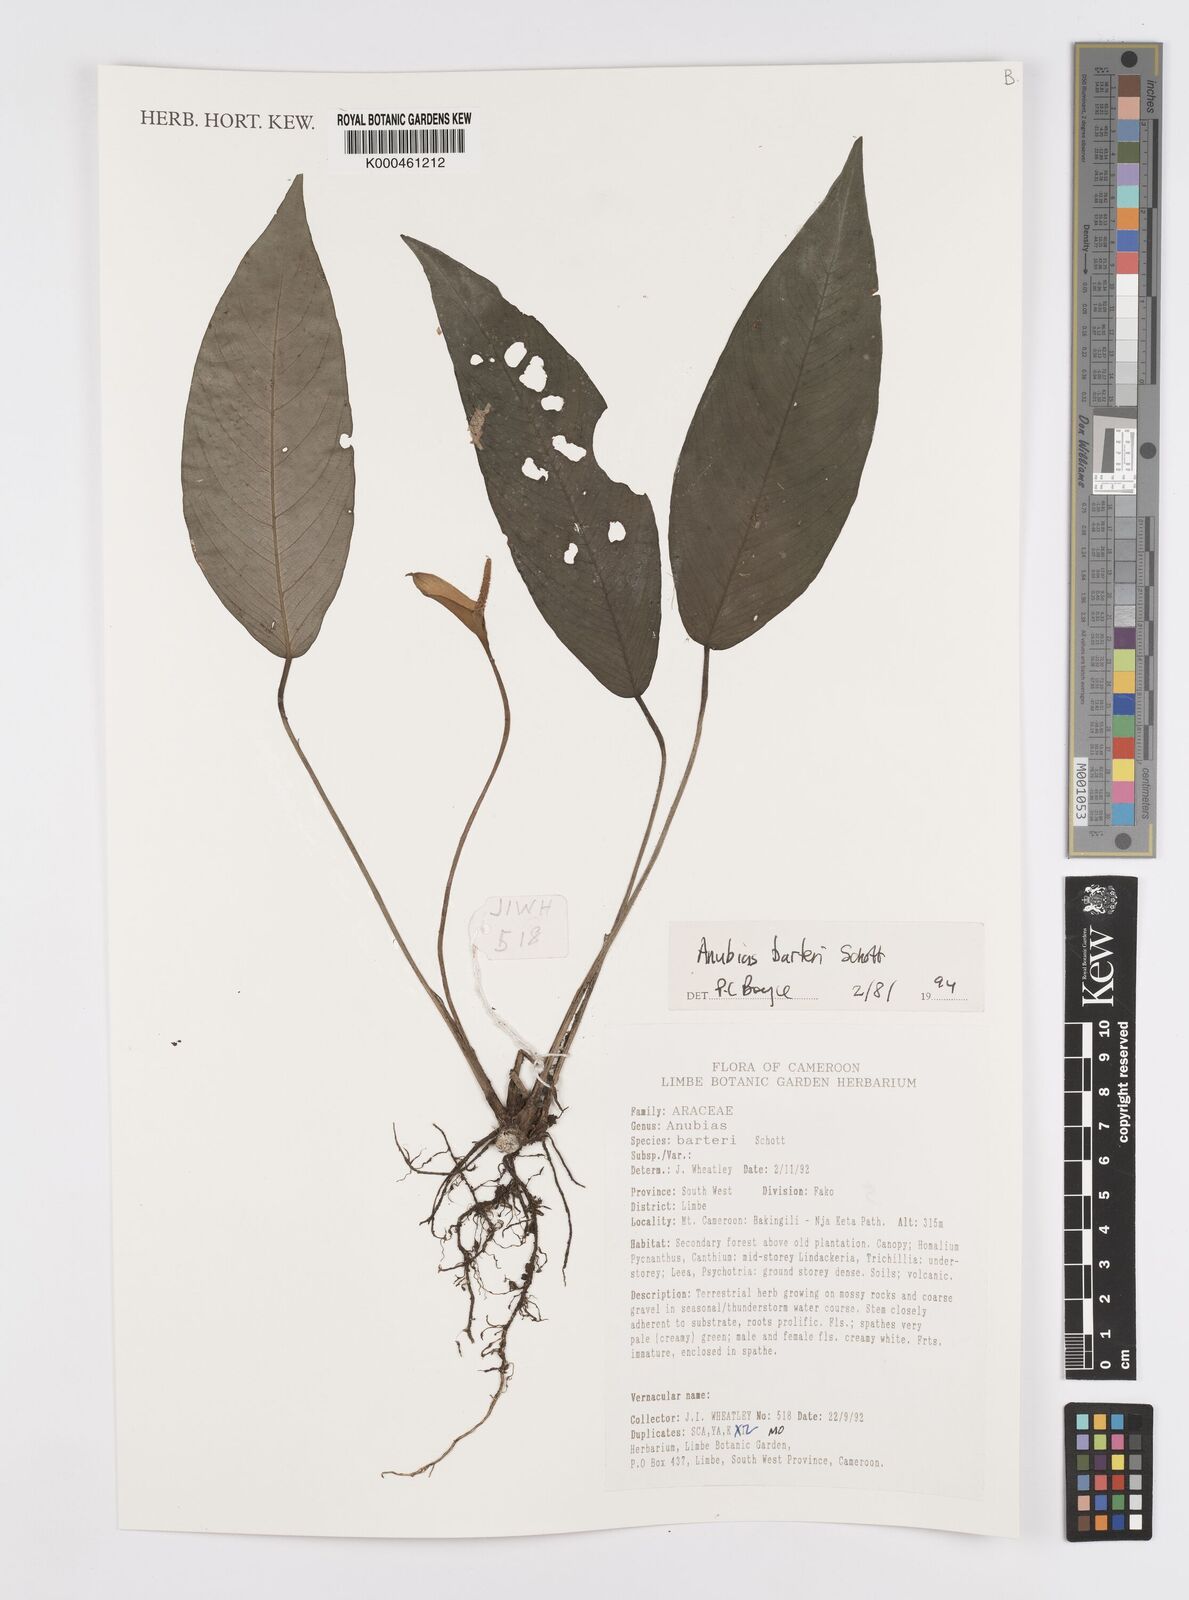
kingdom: Plantae
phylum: Tracheophyta
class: Liliopsida
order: Alismatales
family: Araceae
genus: Anubias
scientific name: Anubias barteri
